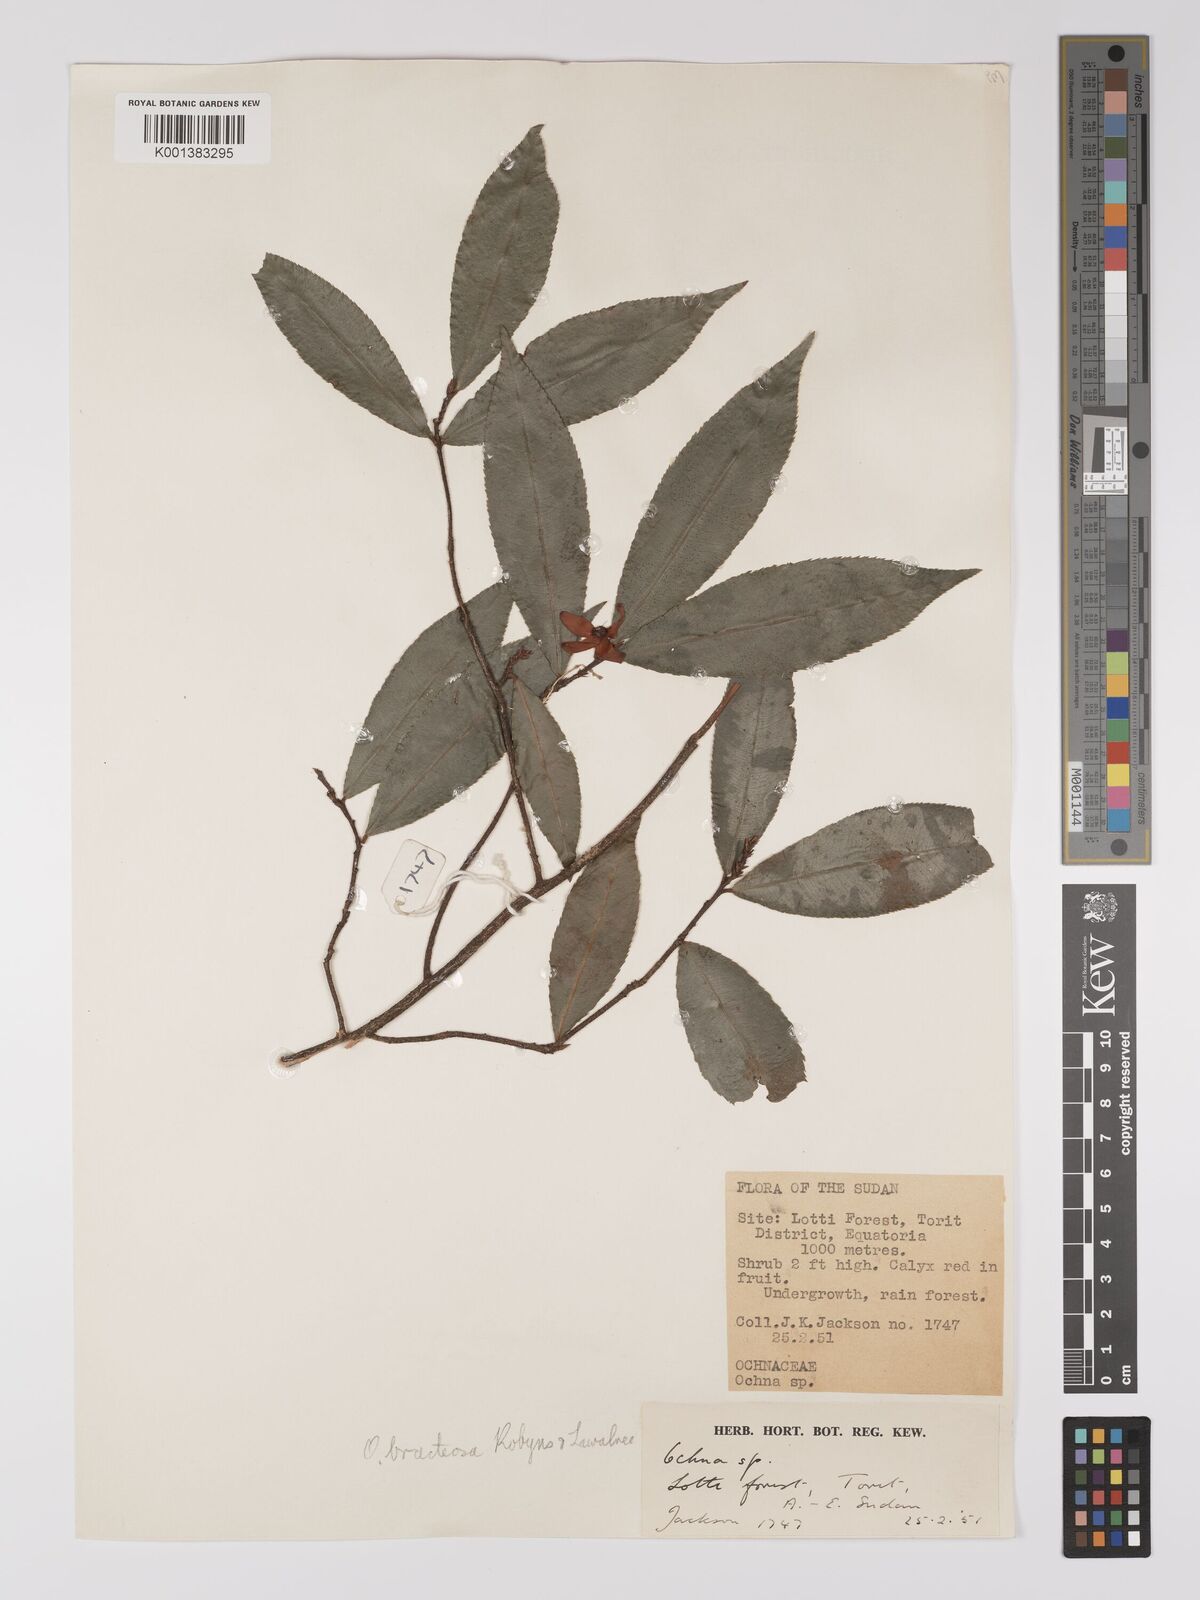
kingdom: Plantae
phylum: Tracheophyta
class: Magnoliopsida
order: Malpighiales
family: Ochnaceae
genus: Ochna
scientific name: Ochna bracteosa
